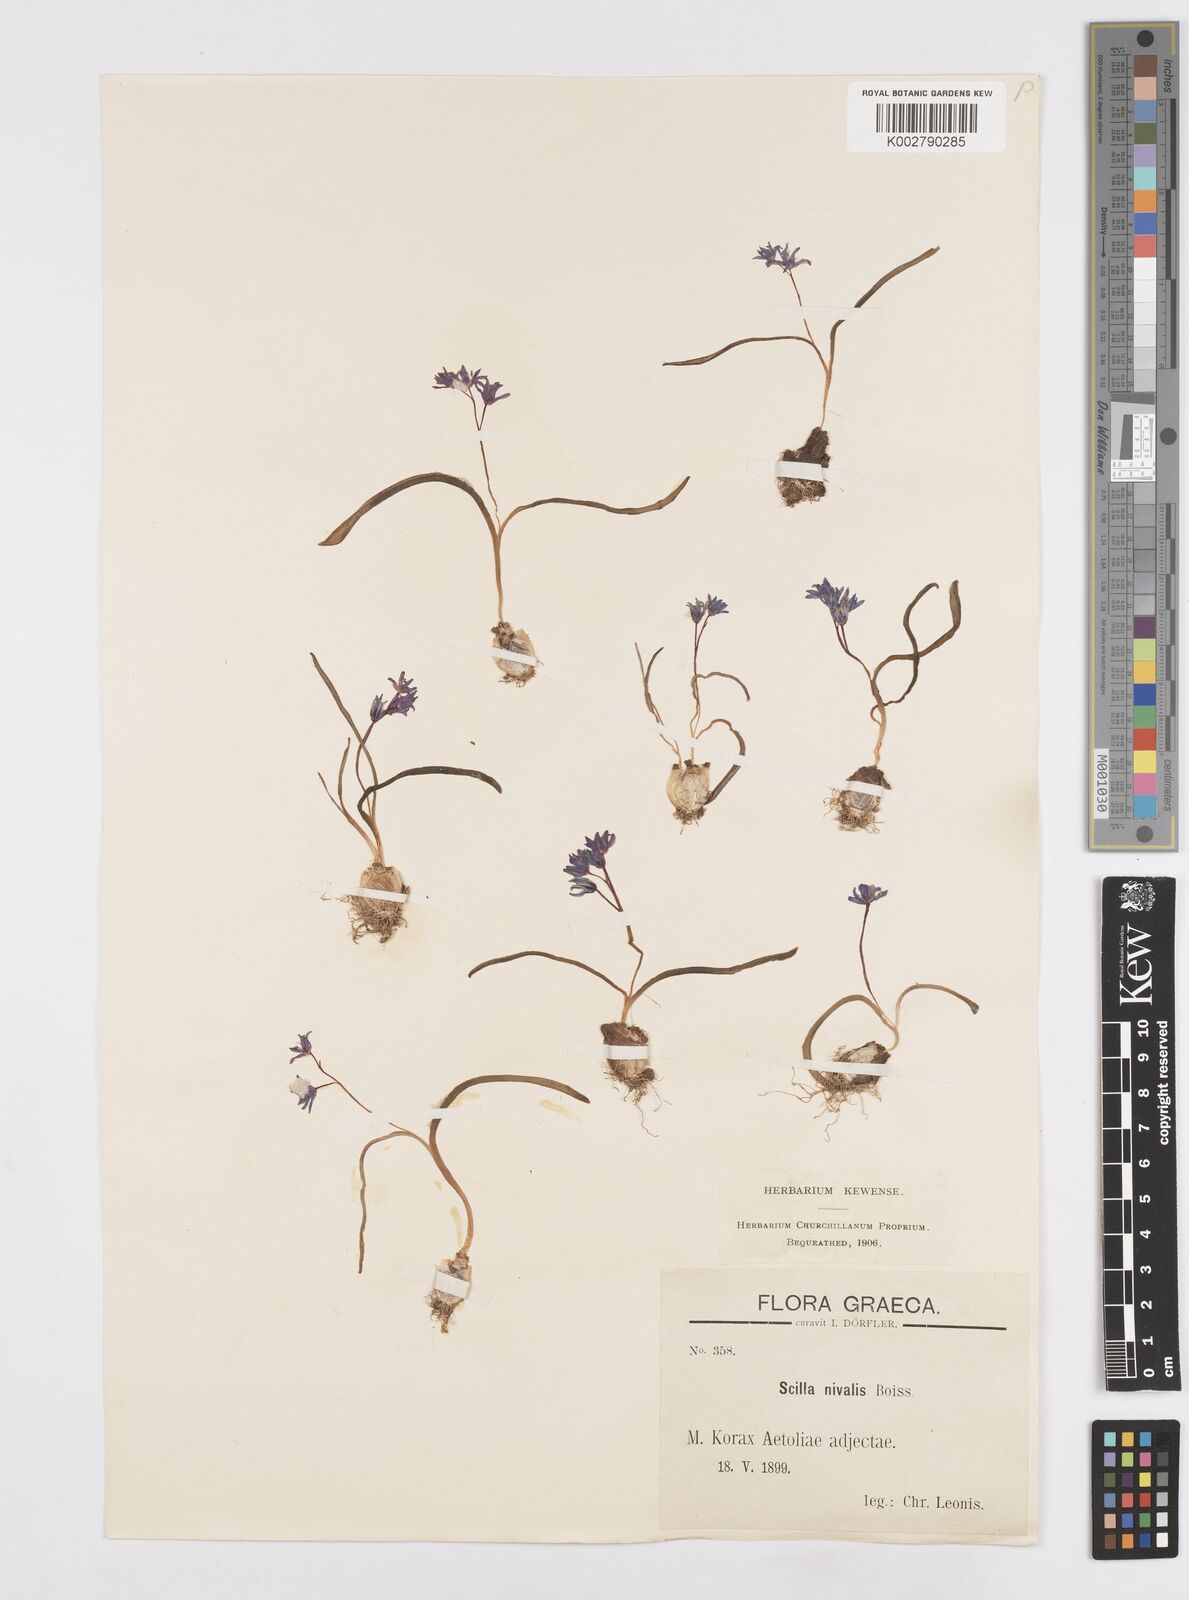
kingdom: Plantae
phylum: Tracheophyta
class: Liliopsida
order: Asparagales
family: Asparagaceae
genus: Scilla
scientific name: Scilla nivalis
